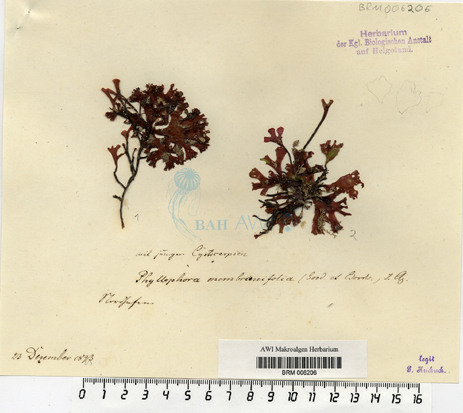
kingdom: Plantae
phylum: Rhodophyta
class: Florideophyceae
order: Gigartinales
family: Phyllophoraceae
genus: Phyllophora
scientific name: Phyllophora
